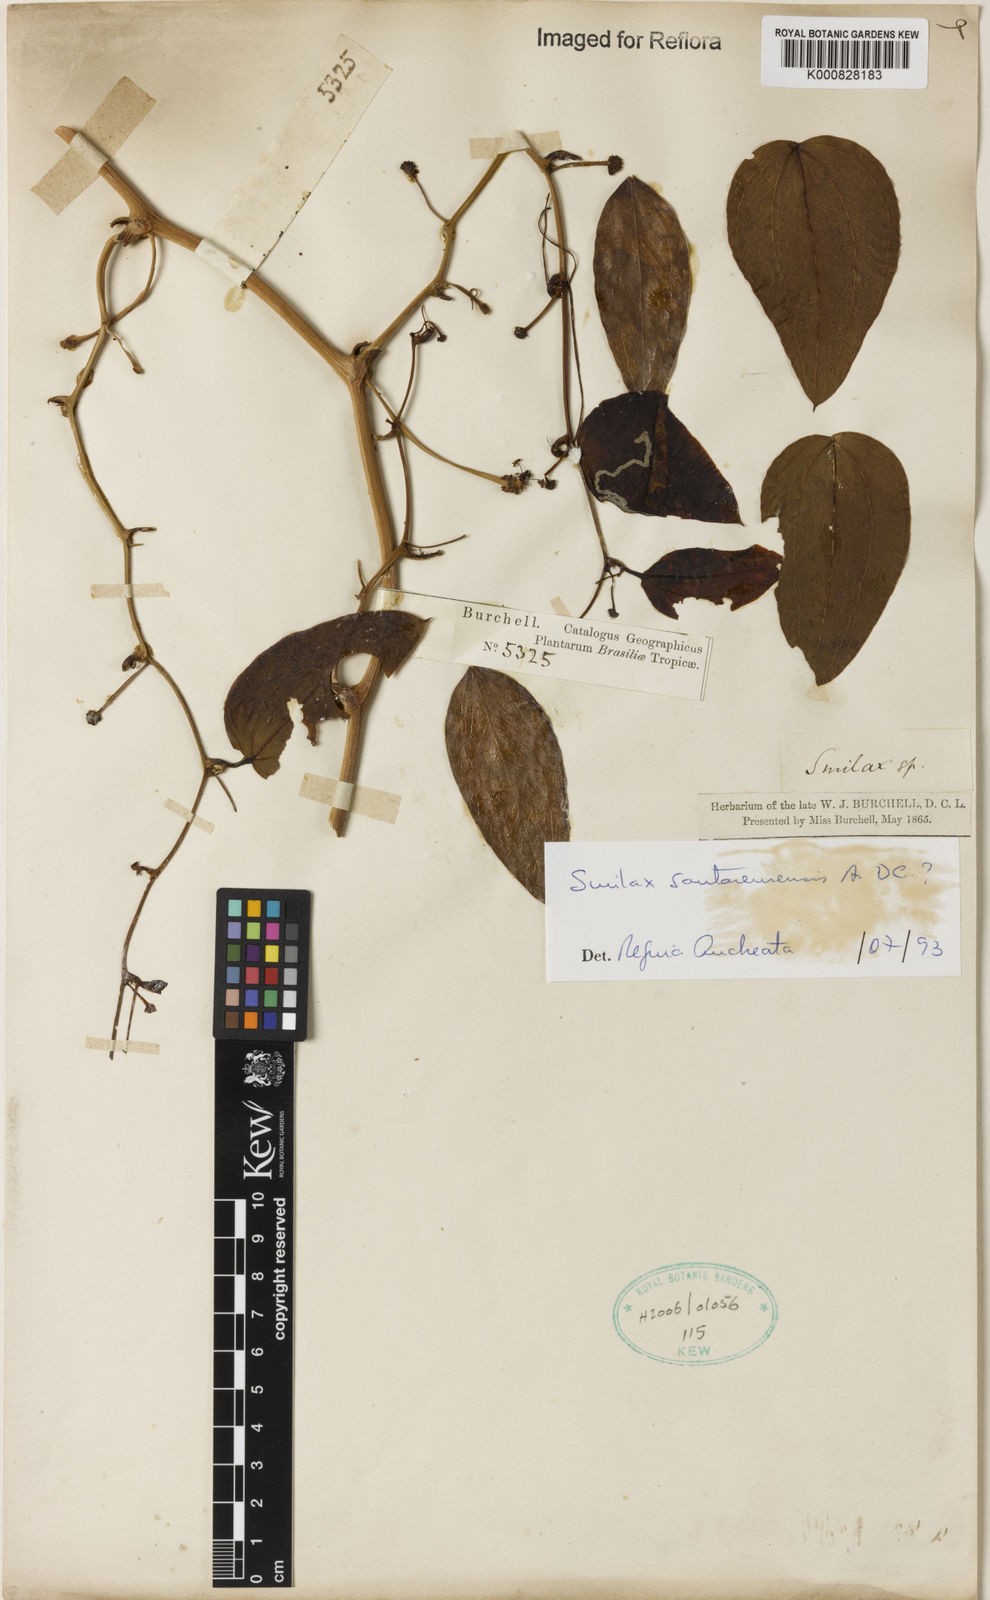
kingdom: Plantae
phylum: Tracheophyta
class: Liliopsida
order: Liliales
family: Smilacaceae
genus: Smilax
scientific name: Smilax santaremensis
